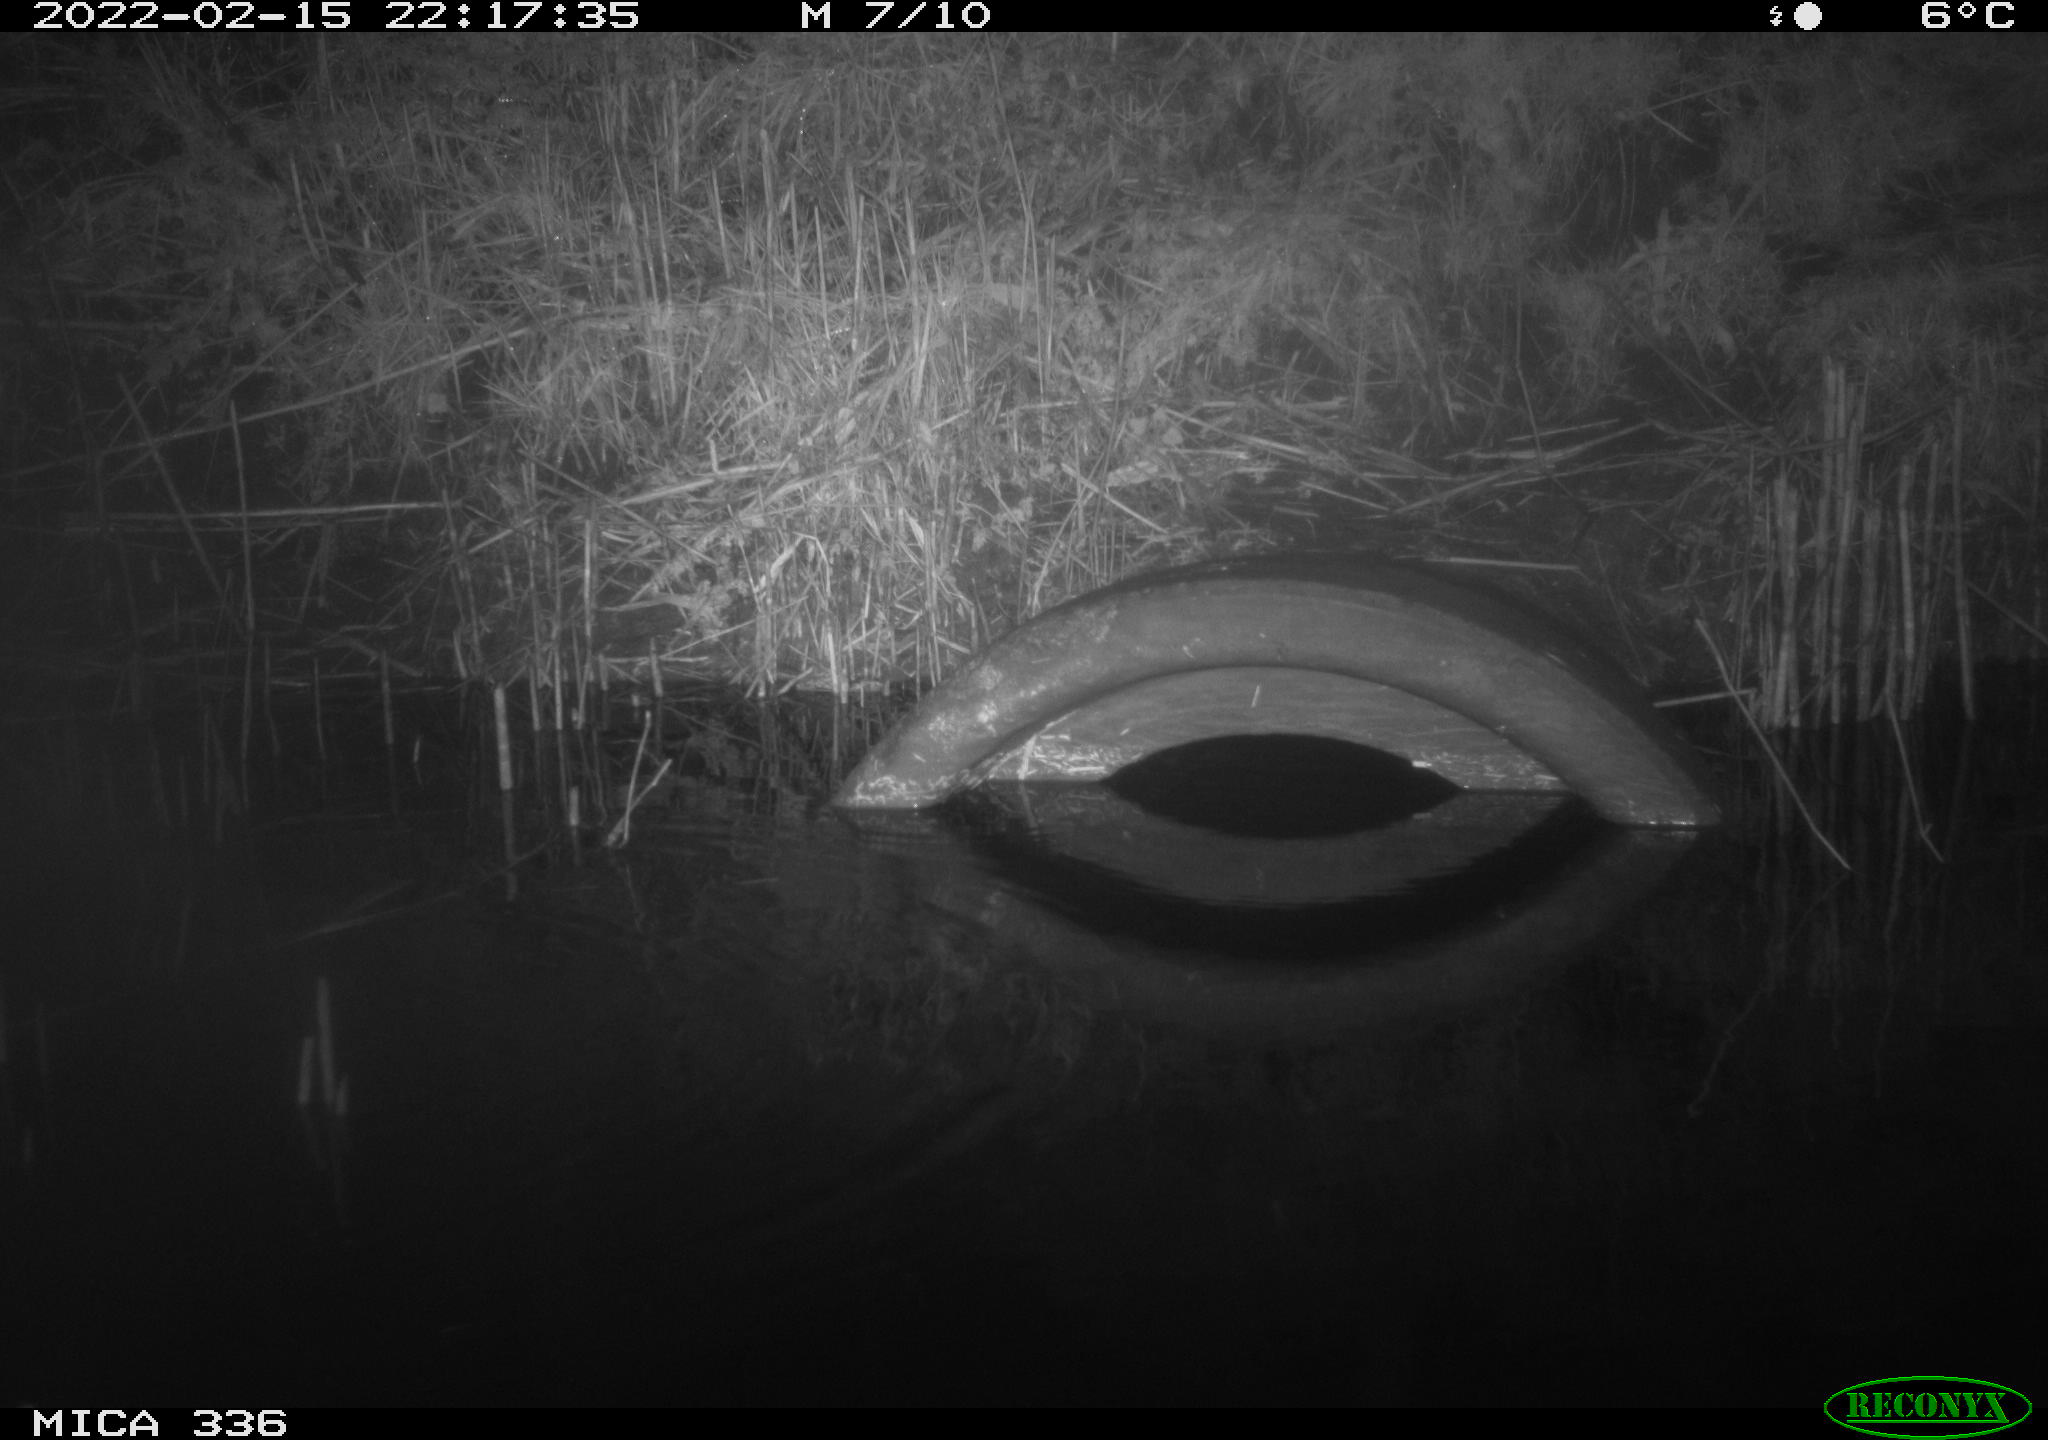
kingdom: Animalia
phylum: Chordata
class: Aves
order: Pelecaniformes
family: Ardeidae
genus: Ardea
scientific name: Ardea cinerea
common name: Grey heron
